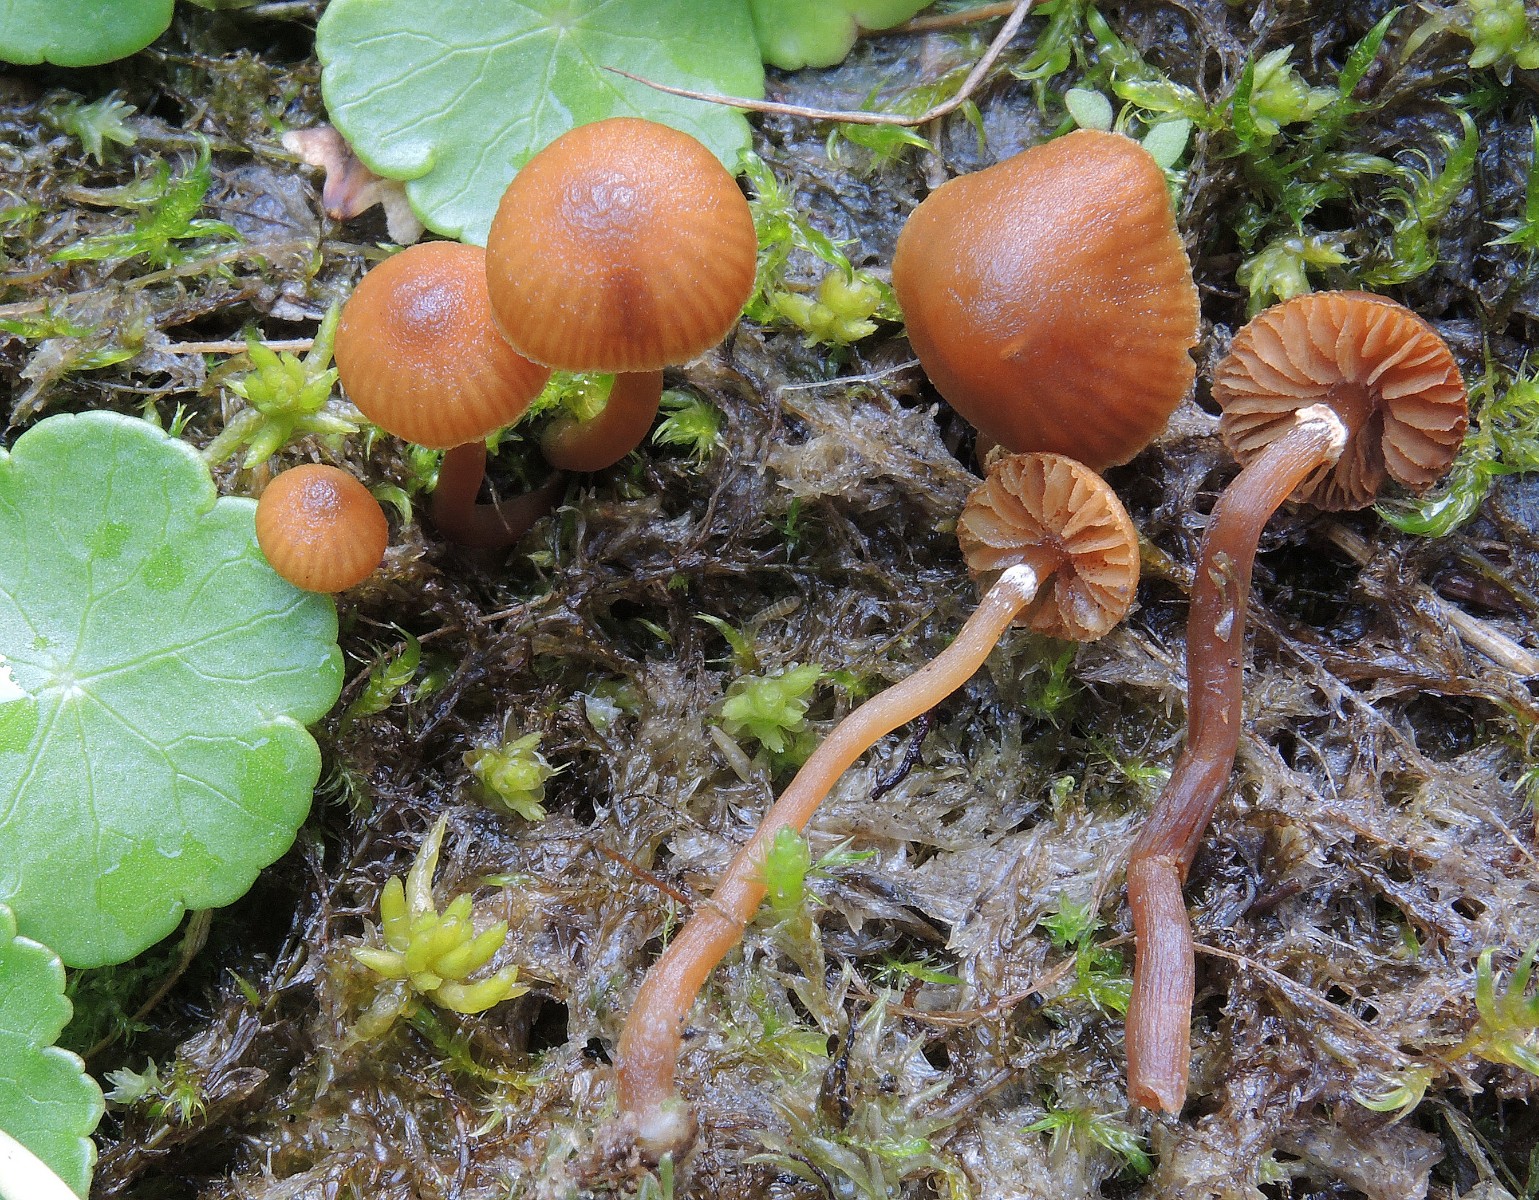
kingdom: Fungi
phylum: Basidiomycota
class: Agaricomycetes
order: Agaricales
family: Hymenogastraceae
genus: Galerina
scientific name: Galerina jaapii
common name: hvidbæltet hjelmhat
